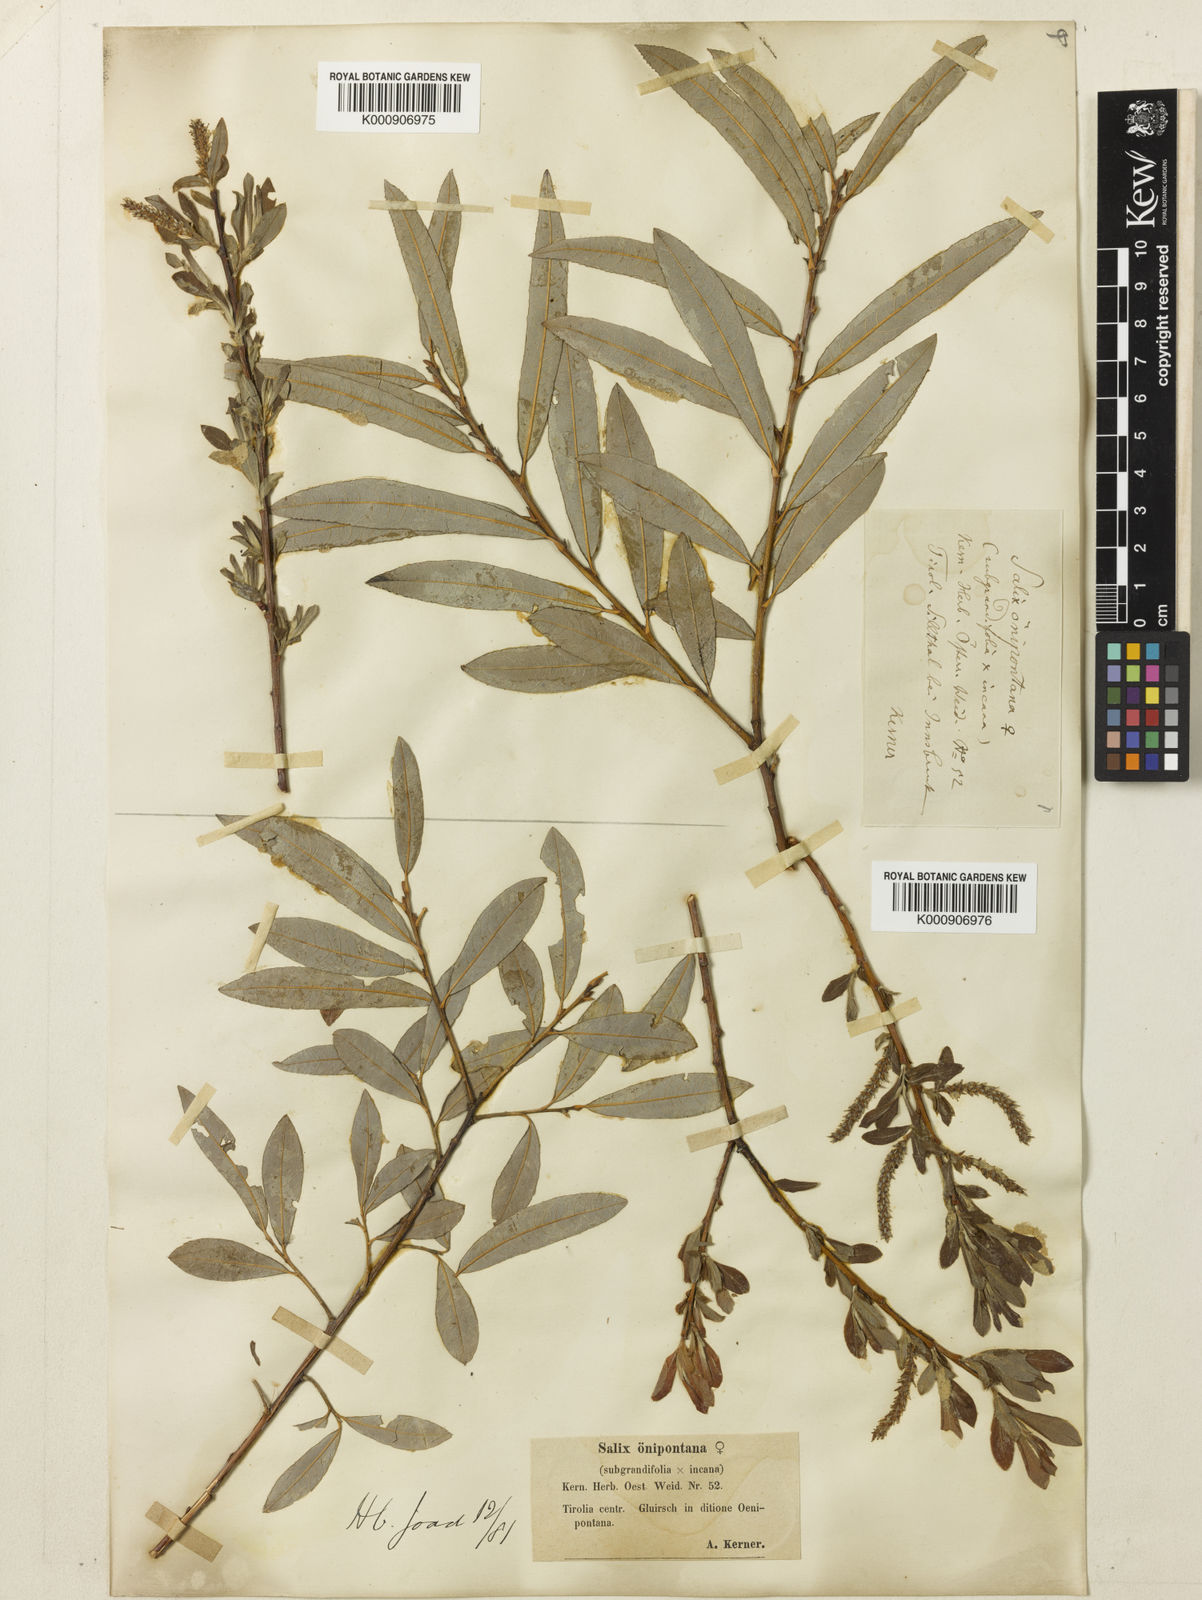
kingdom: Plantae
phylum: Tracheophyta
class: Magnoliopsida
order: Malpighiales
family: Salicaceae
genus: Salix
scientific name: Salix appendiculata
